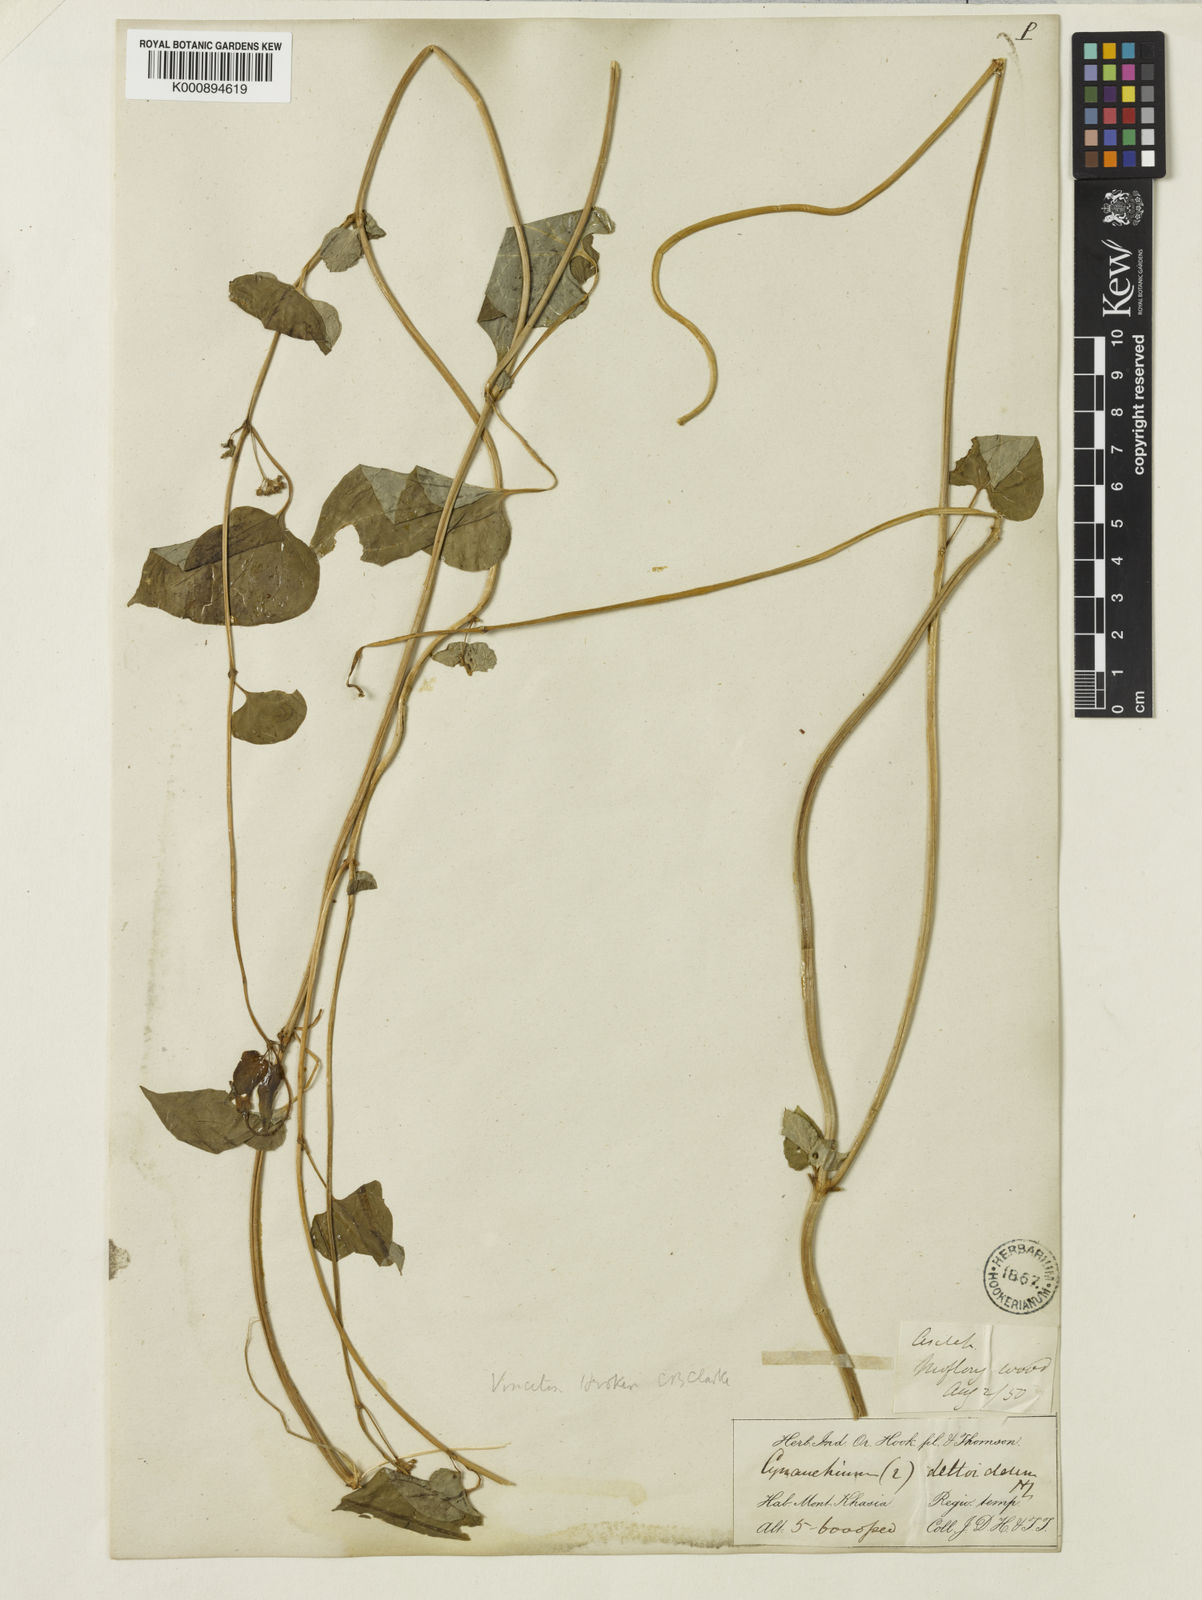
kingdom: Plantae
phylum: Tracheophyta
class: Magnoliopsida
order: Gentianales
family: Apocynaceae
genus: Vincetoxicum
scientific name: Vincetoxicum deltoideum
